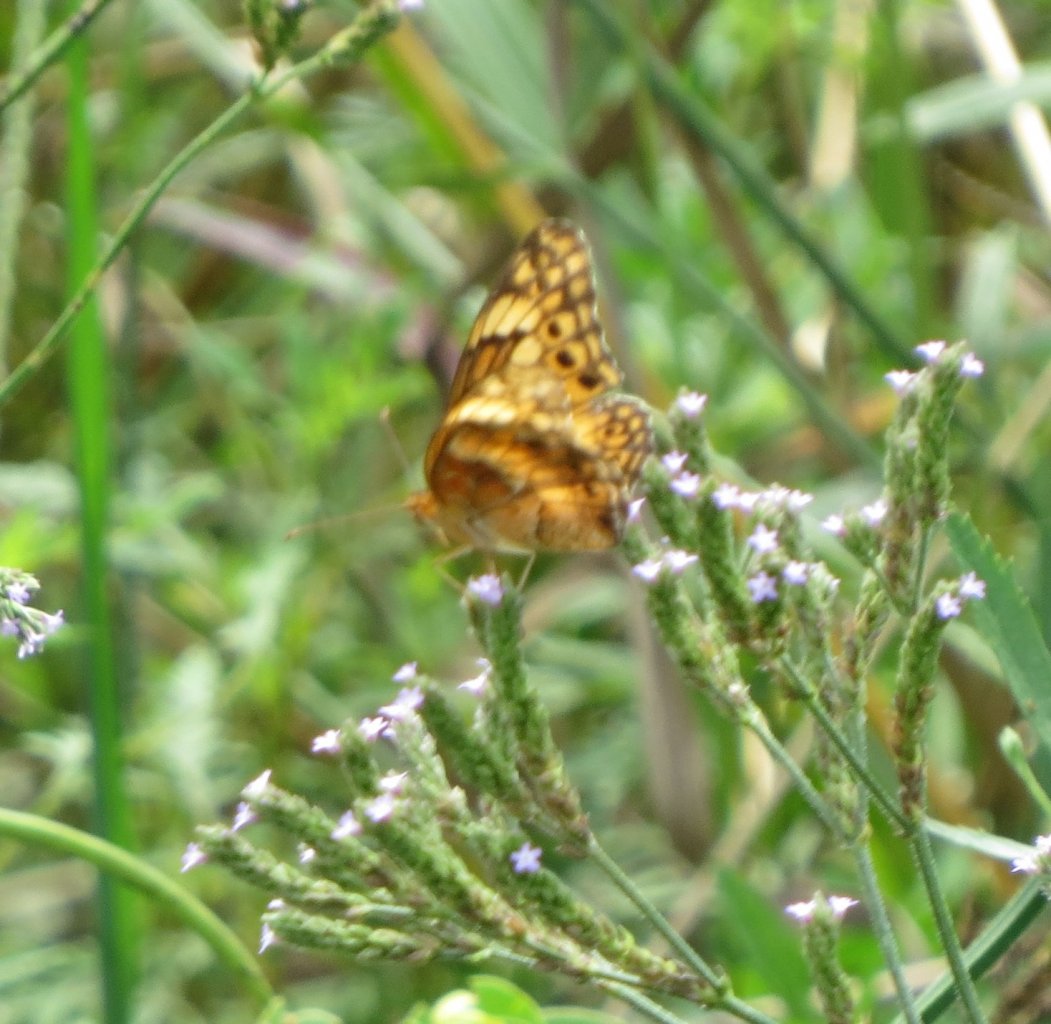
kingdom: Animalia
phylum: Arthropoda
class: Insecta
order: Lepidoptera
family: Nymphalidae
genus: Euptoieta
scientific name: Euptoieta claudia
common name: Variegated Fritillary
